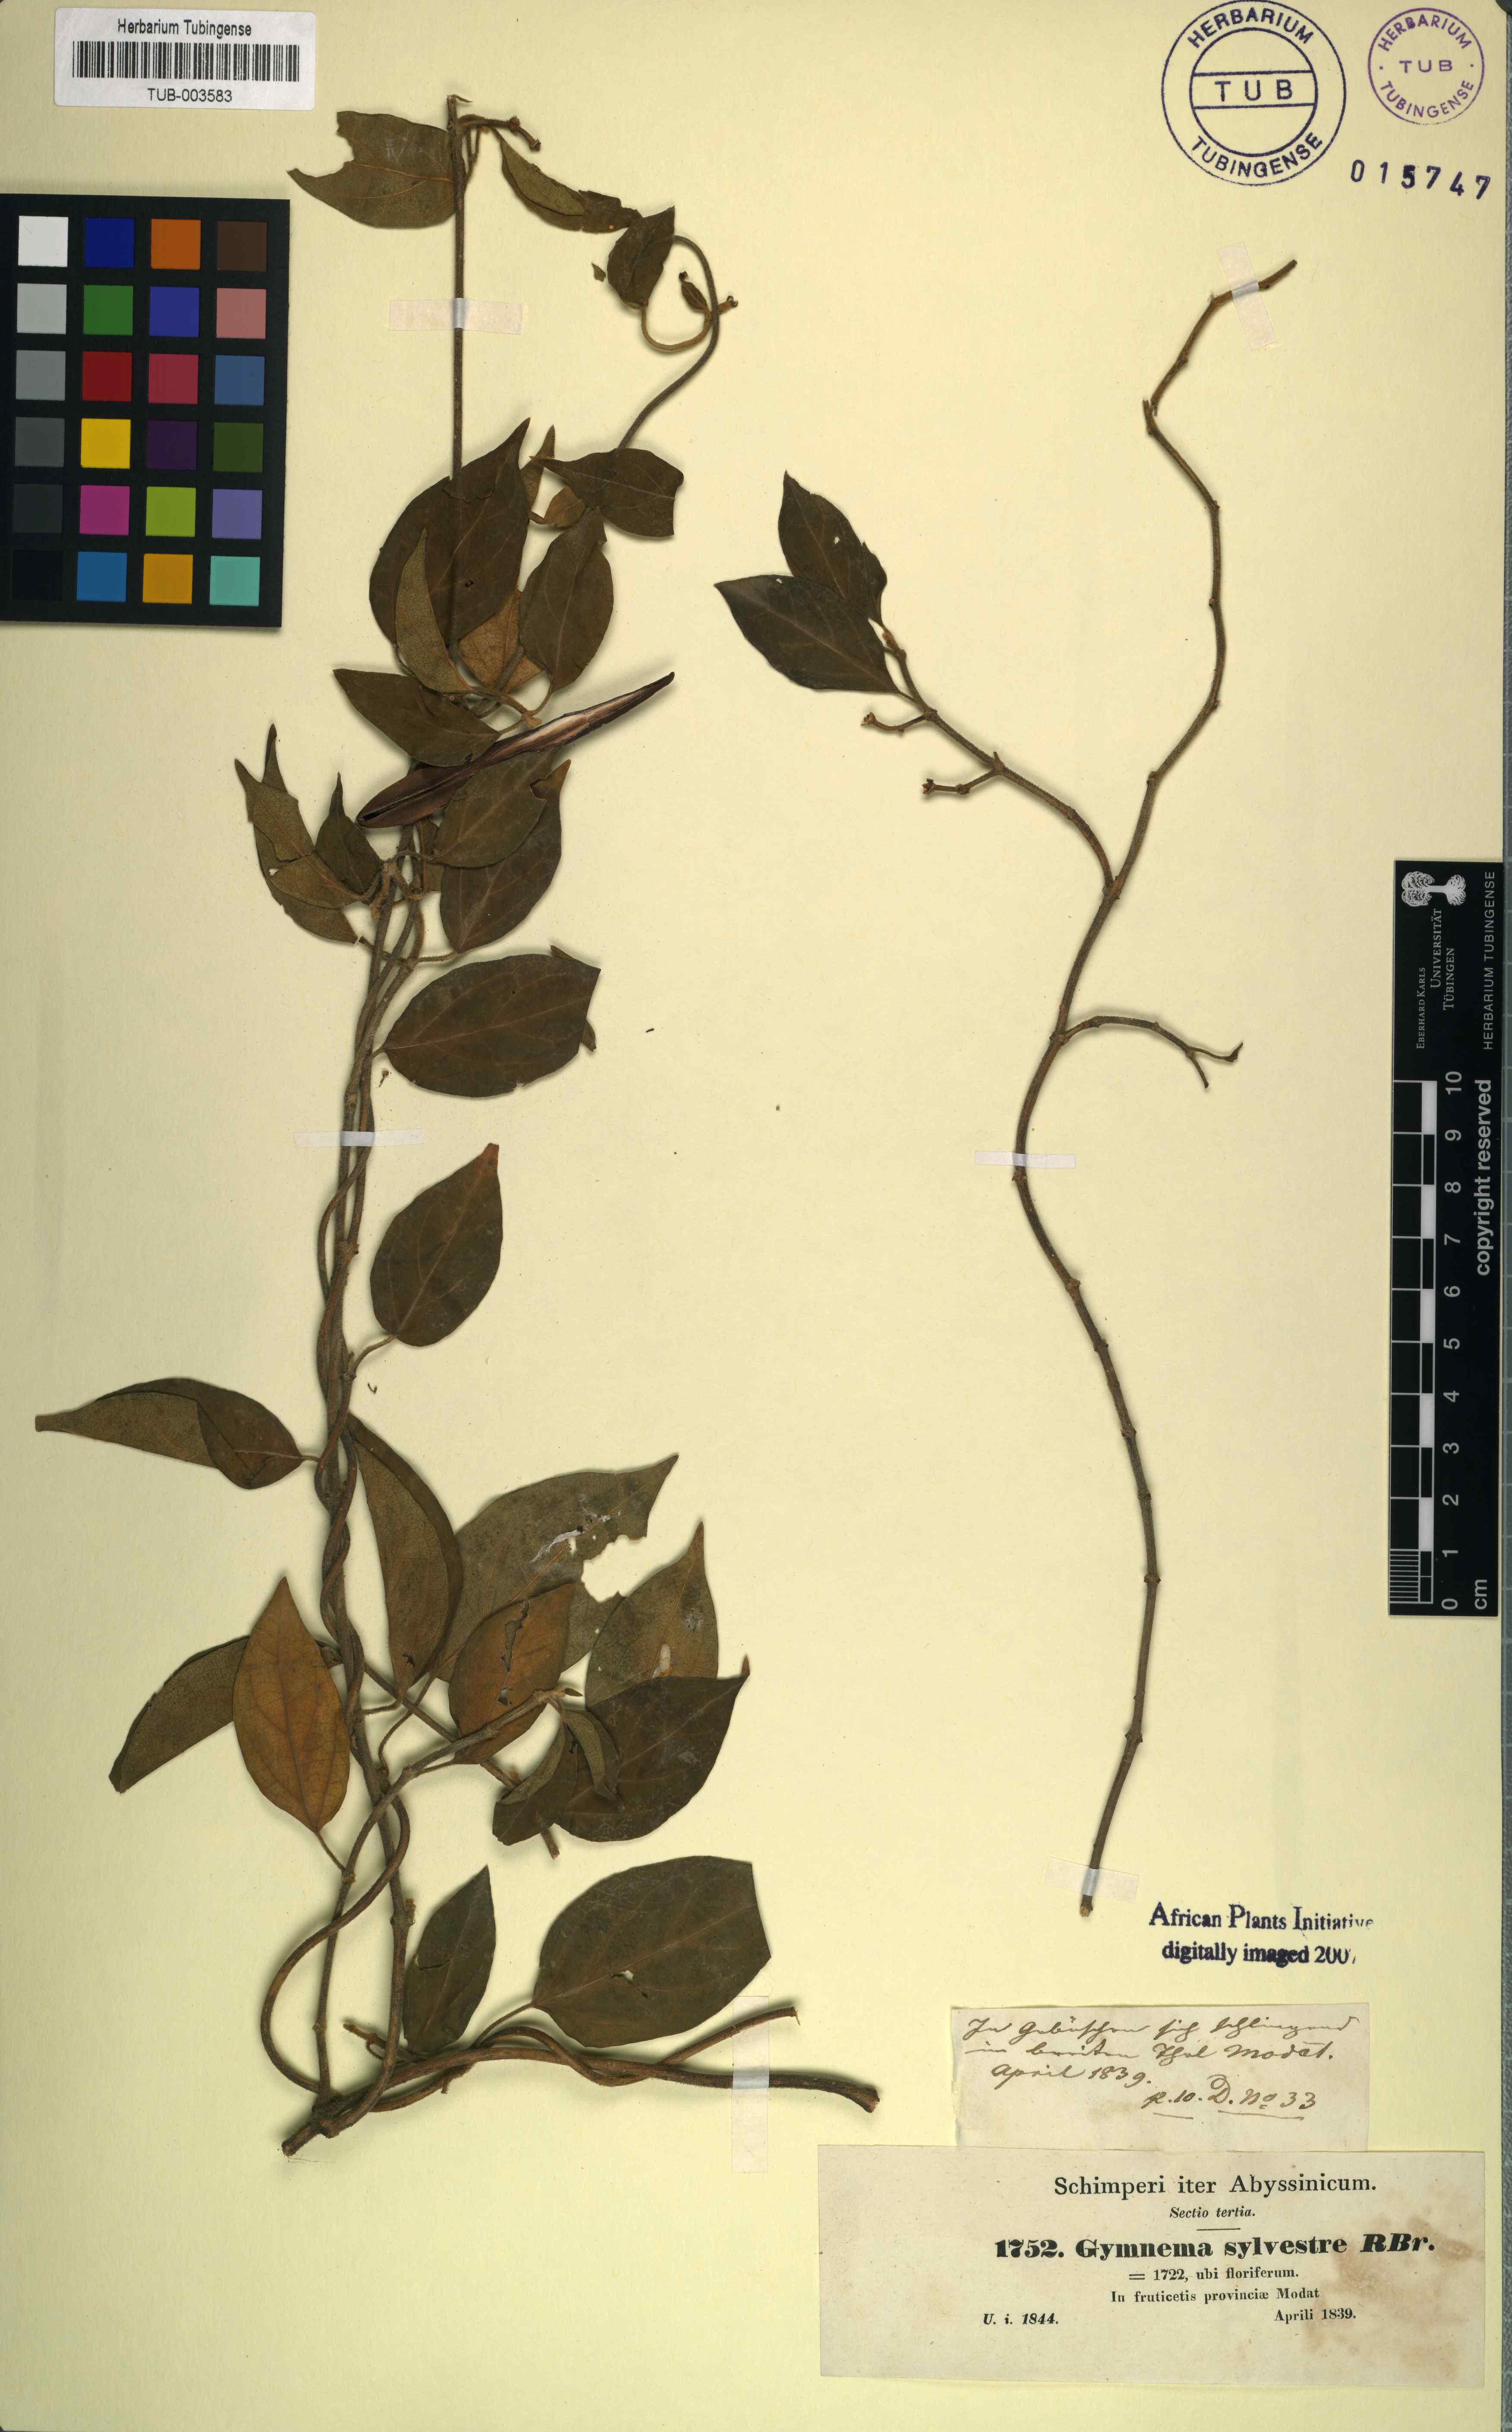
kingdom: Plantae
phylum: Tracheophyta
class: Magnoliopsida
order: Gentianales
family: Apocynaceae
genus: Gymnema
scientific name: Gymnema sylvestre
